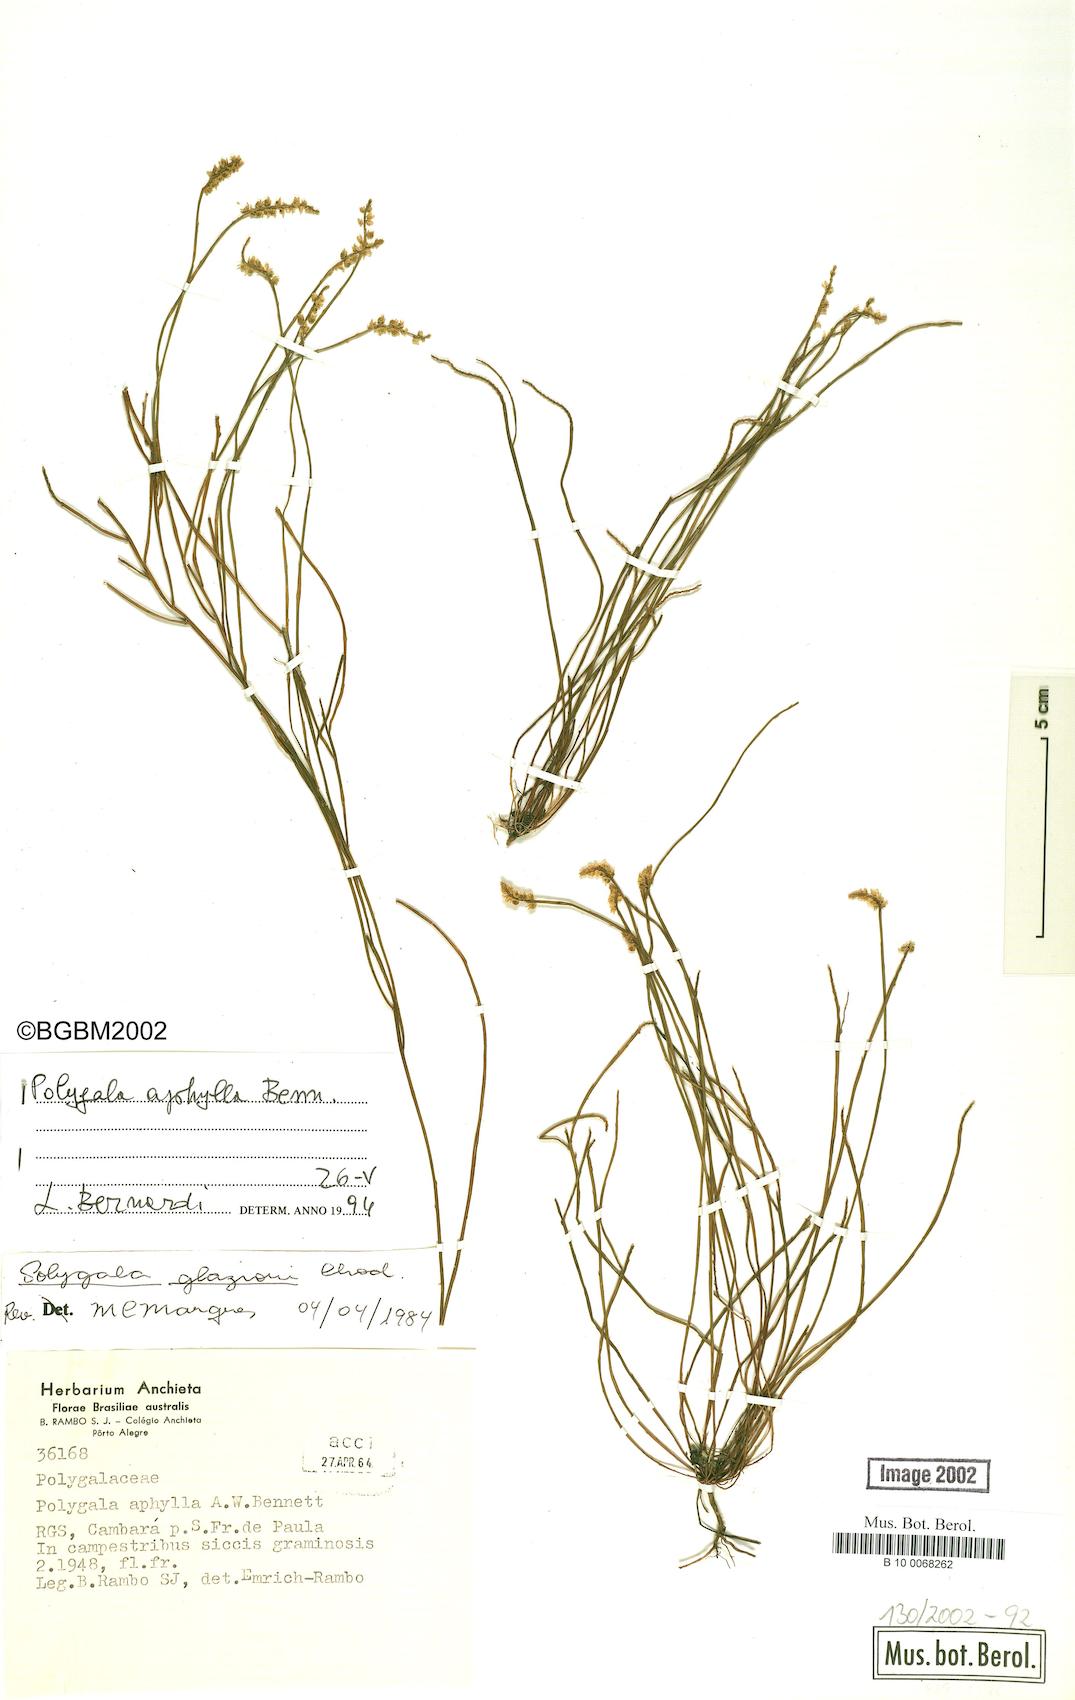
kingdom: Plantae
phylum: Tracheophyta
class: Magnoliopsida
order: Fabales
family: Polygalaceae
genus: Polygala
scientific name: Polygala aphylla
